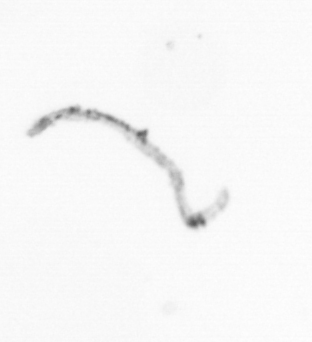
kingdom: Chromista
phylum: Ochrophyta
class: Bacillariophyceae
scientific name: Bacillariophyceae
